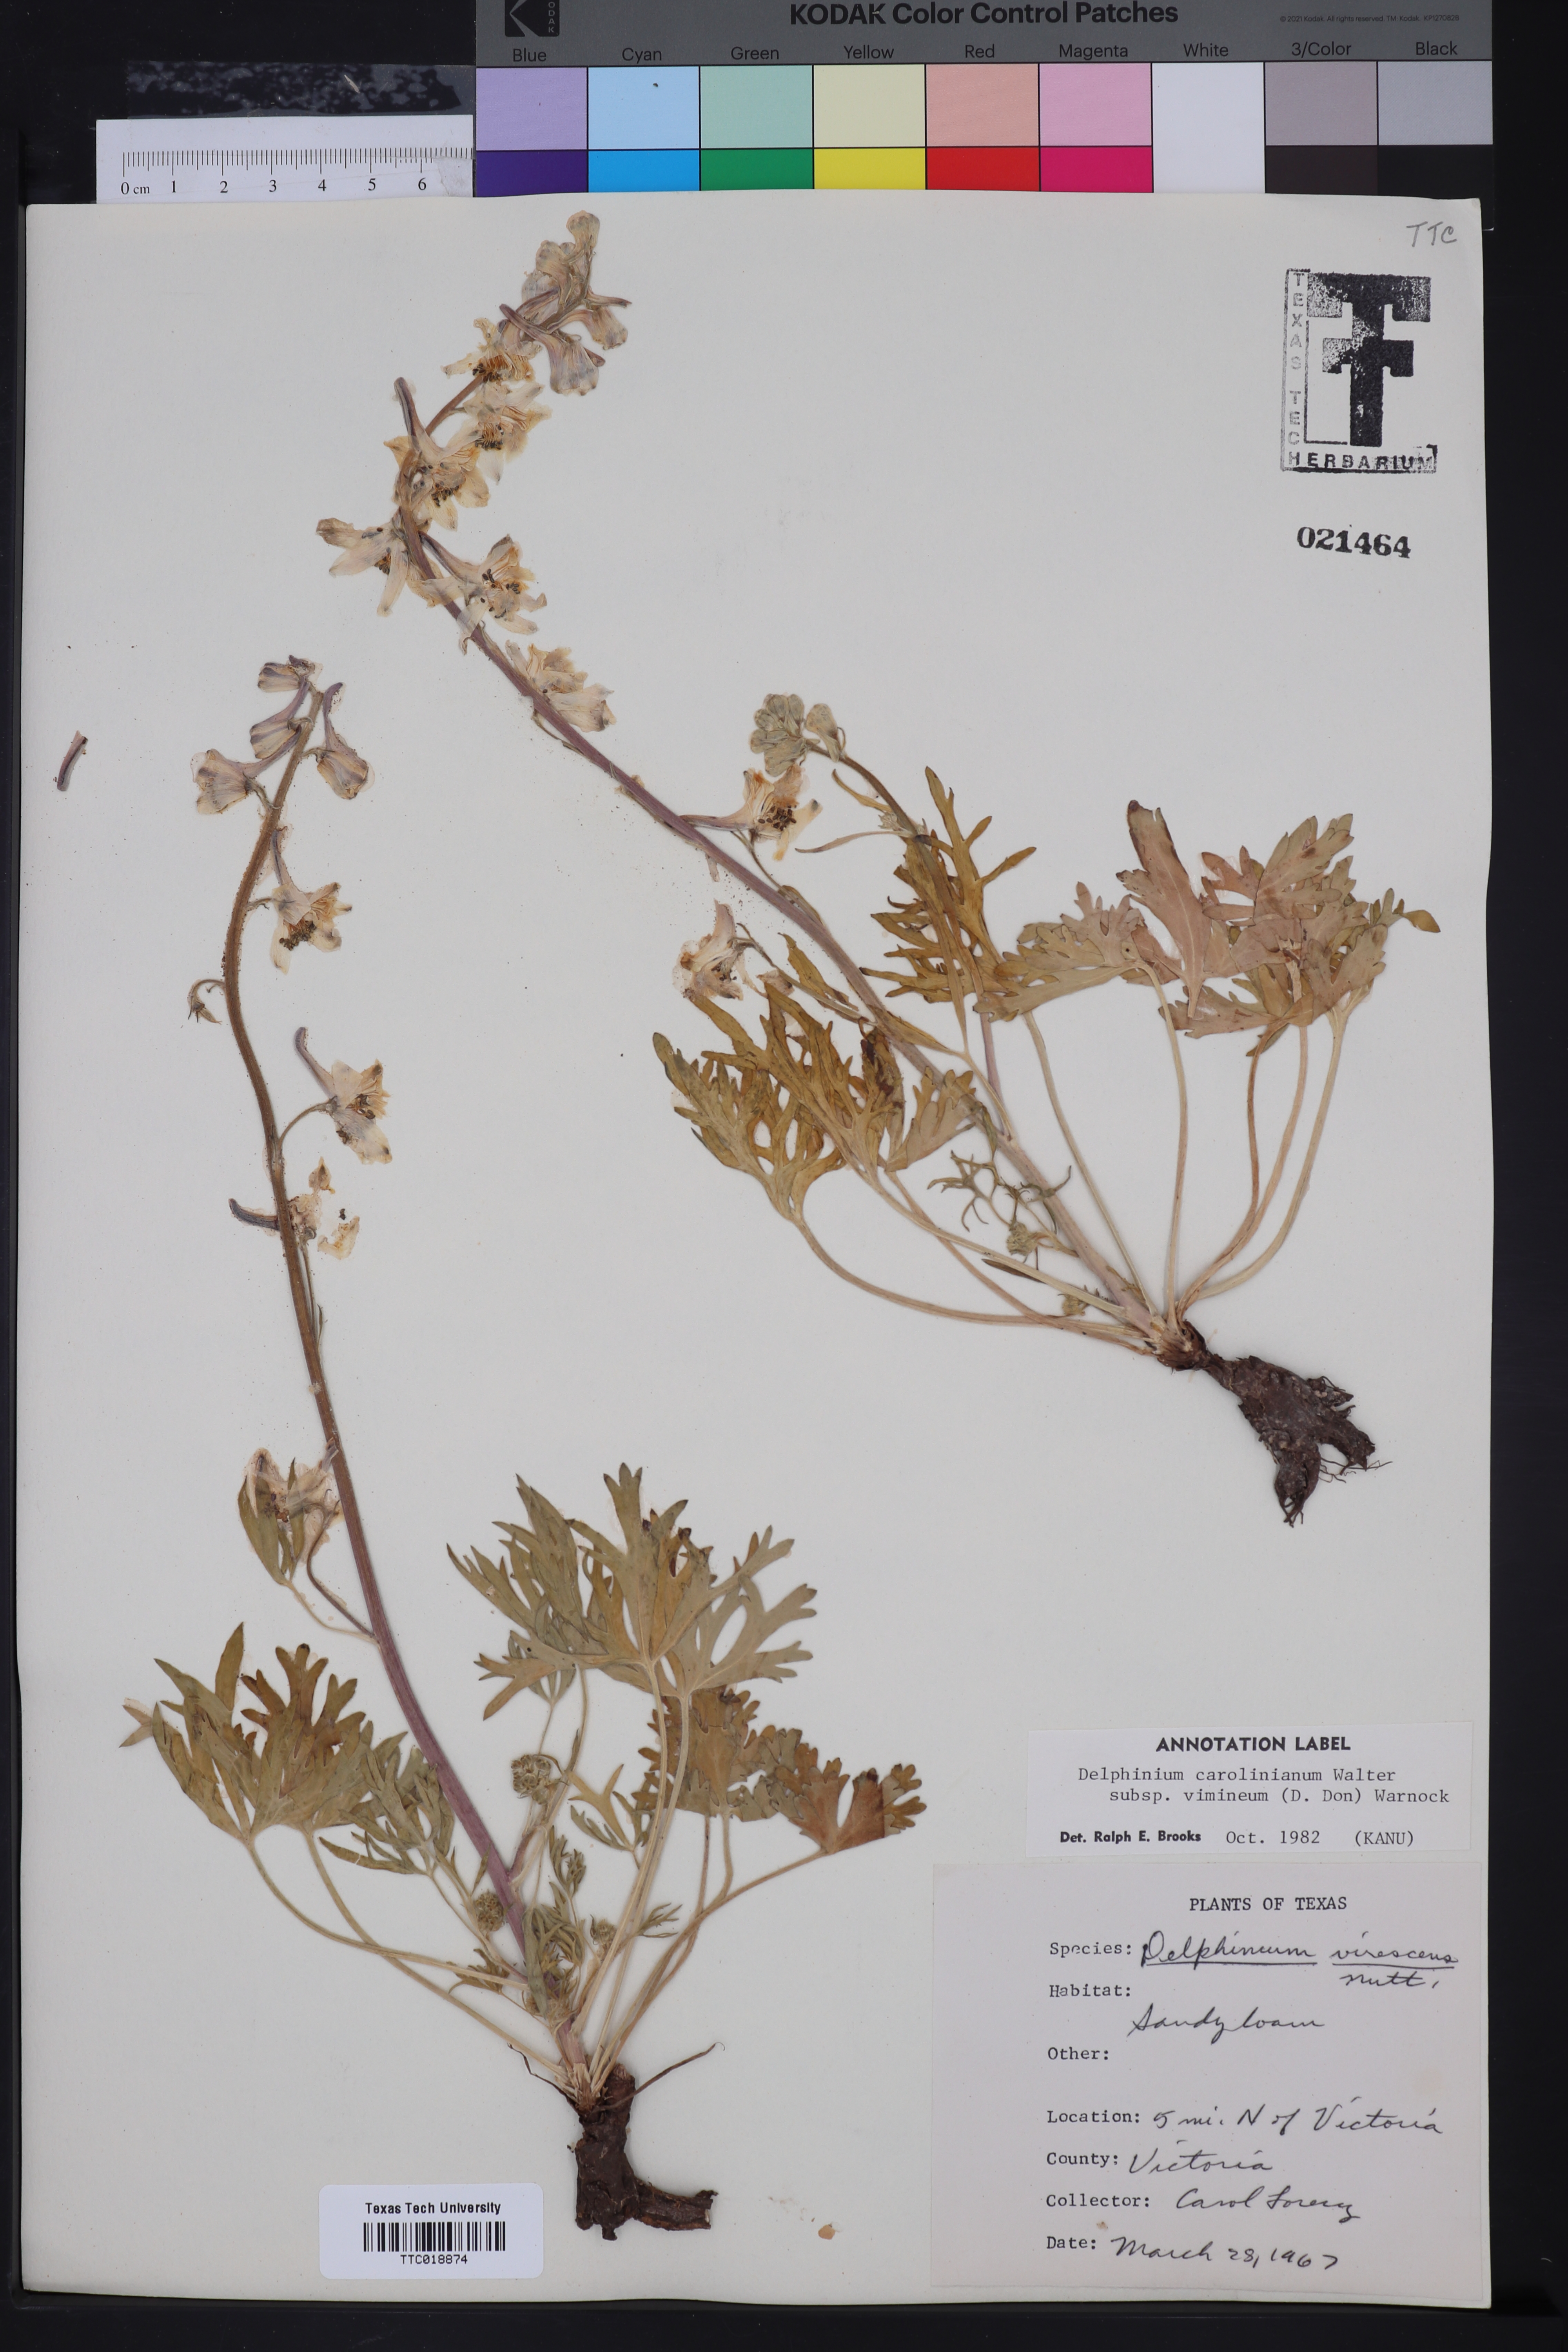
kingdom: Plantae
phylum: Tracheophyta
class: Magnoliopsida
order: Ranunculales
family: Ranunculaceae
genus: Delphinium
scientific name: Delphinium carolinianum
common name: Carolina larkspur
